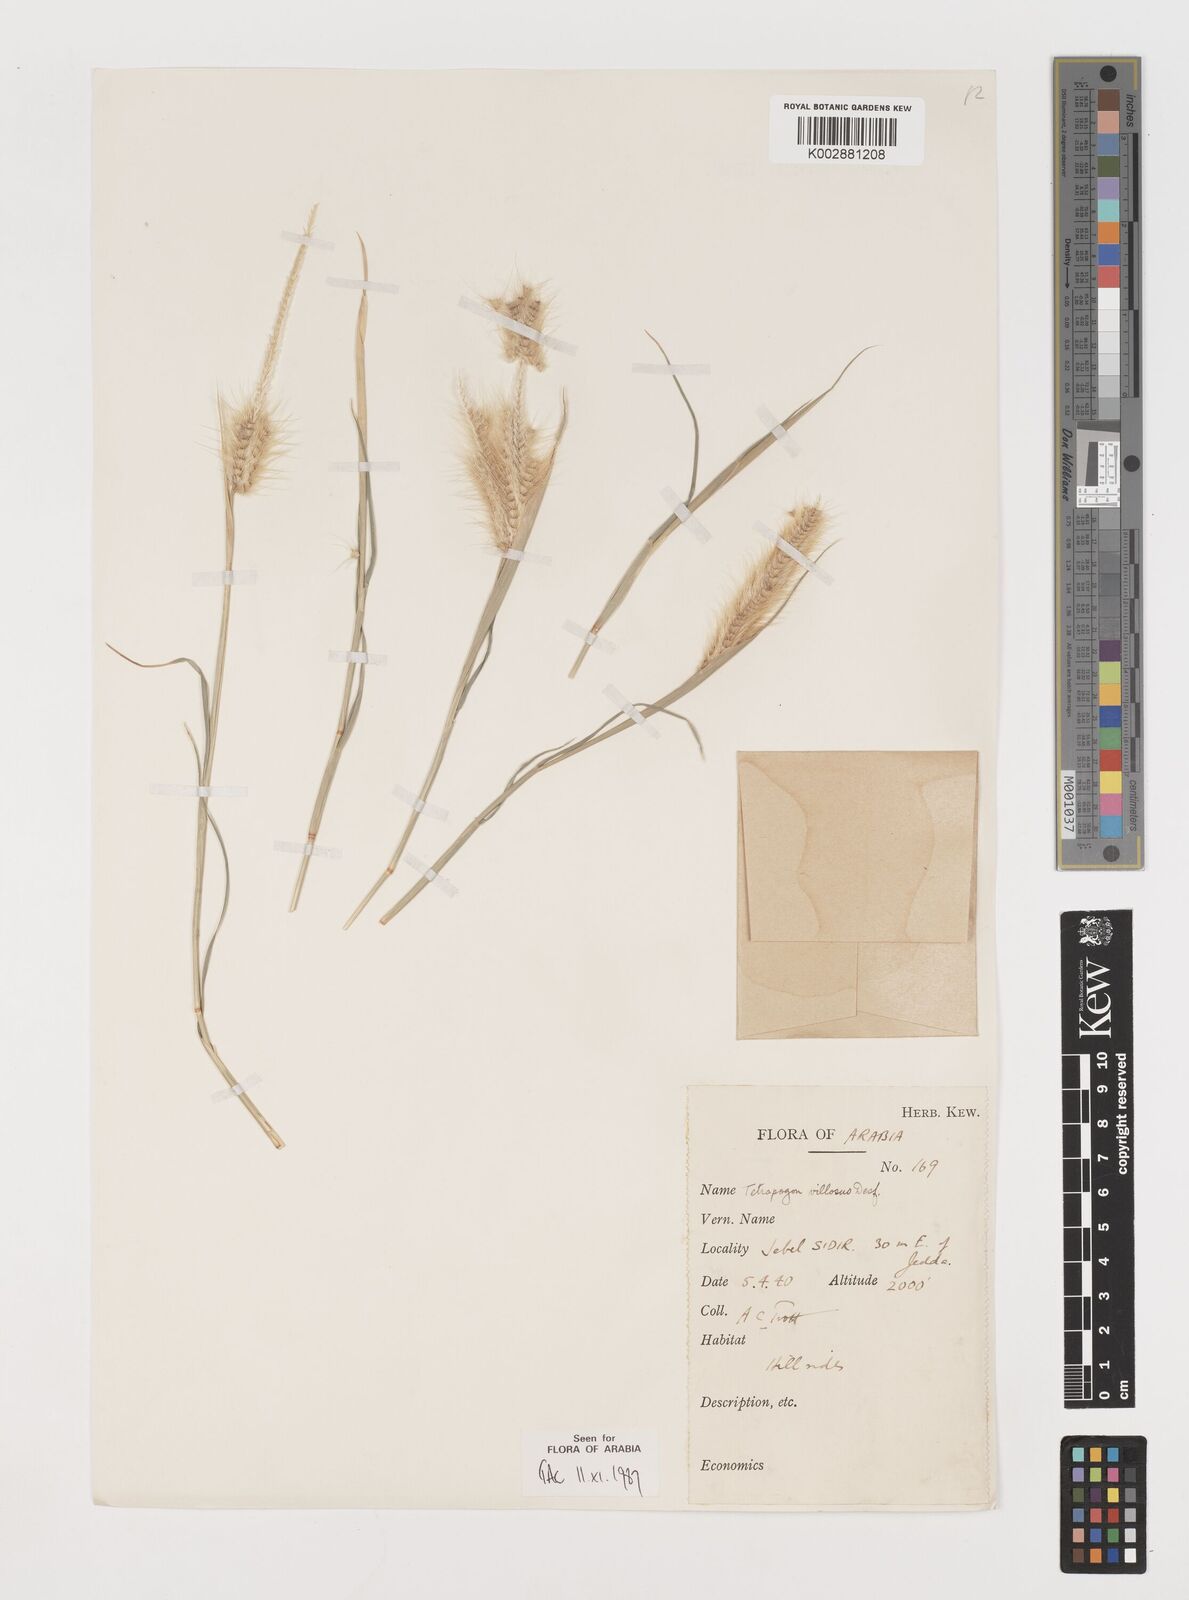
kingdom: Plantae
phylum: Tracheophyta
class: Liliopsida
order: Poales
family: Poaceae
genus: Tetrapogon
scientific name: Tetrapogon villosus
